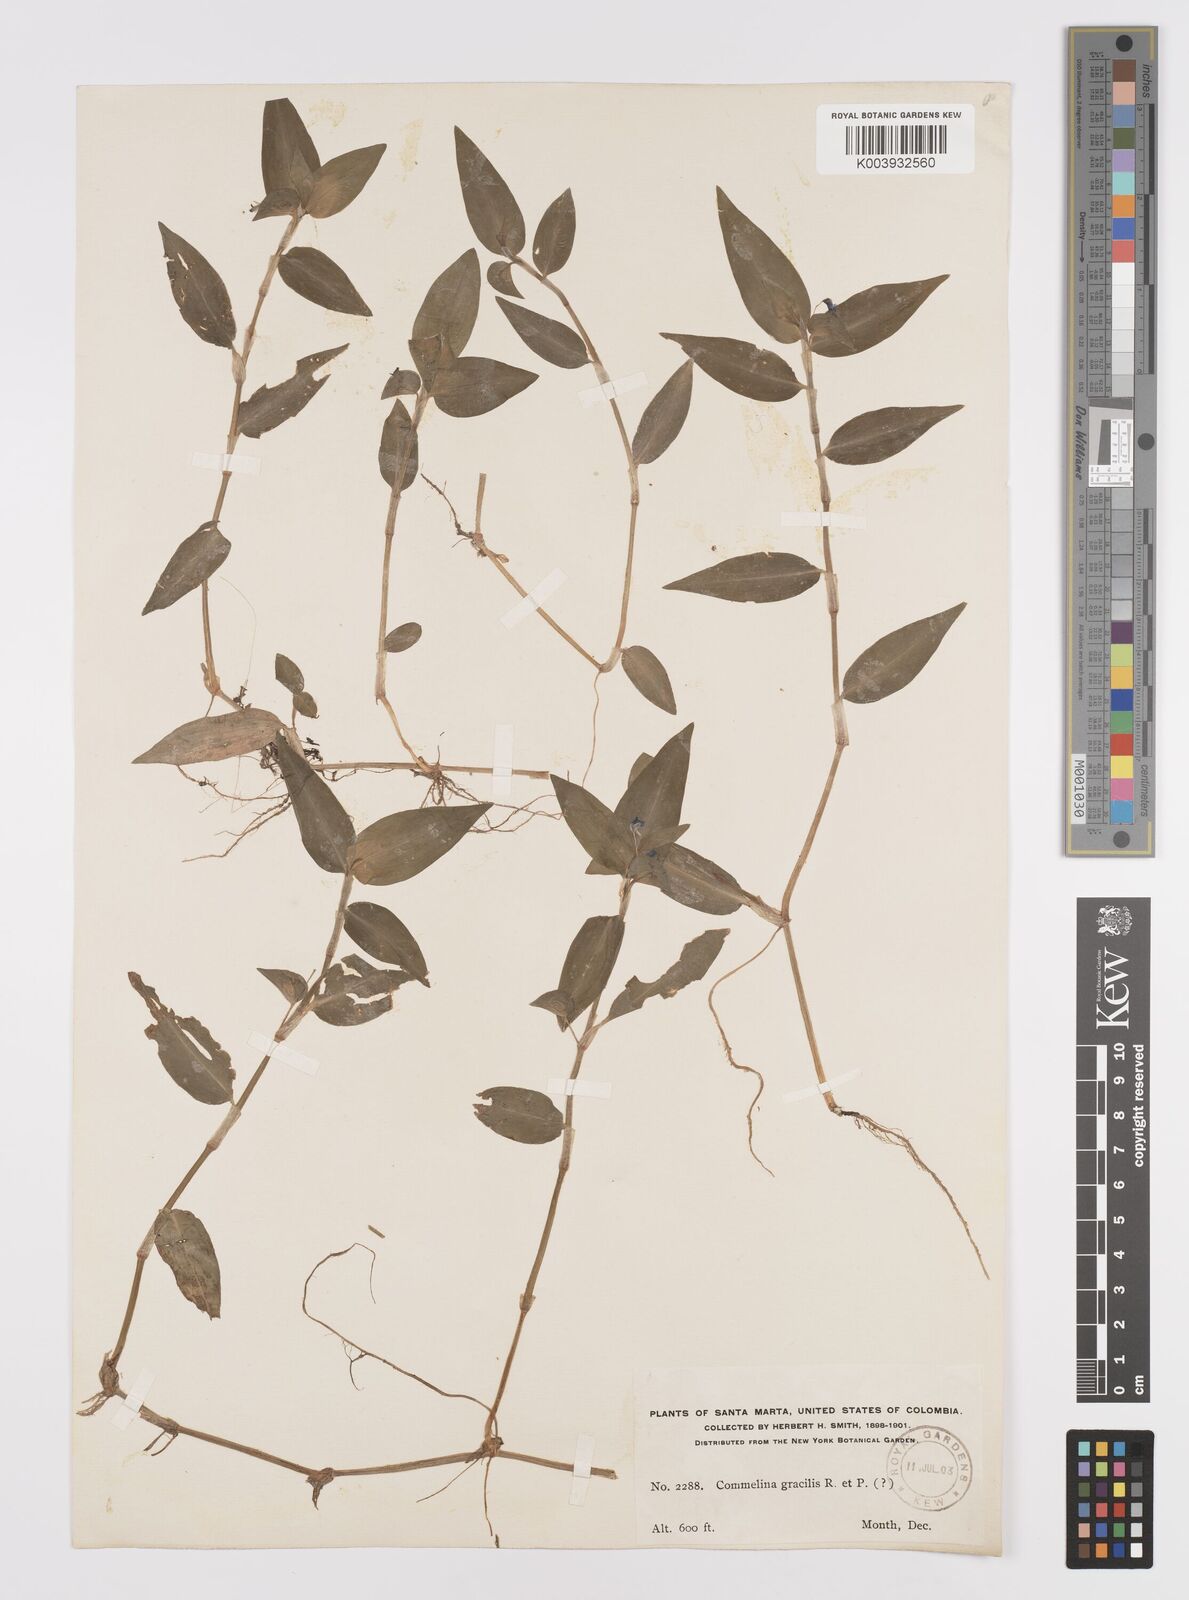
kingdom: Plantae
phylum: Tracheophyta
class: Liliopsida
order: Commelinales
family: Commelinaceae
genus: Commelina
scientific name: Commelina diffusa
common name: Climbing dayflower
